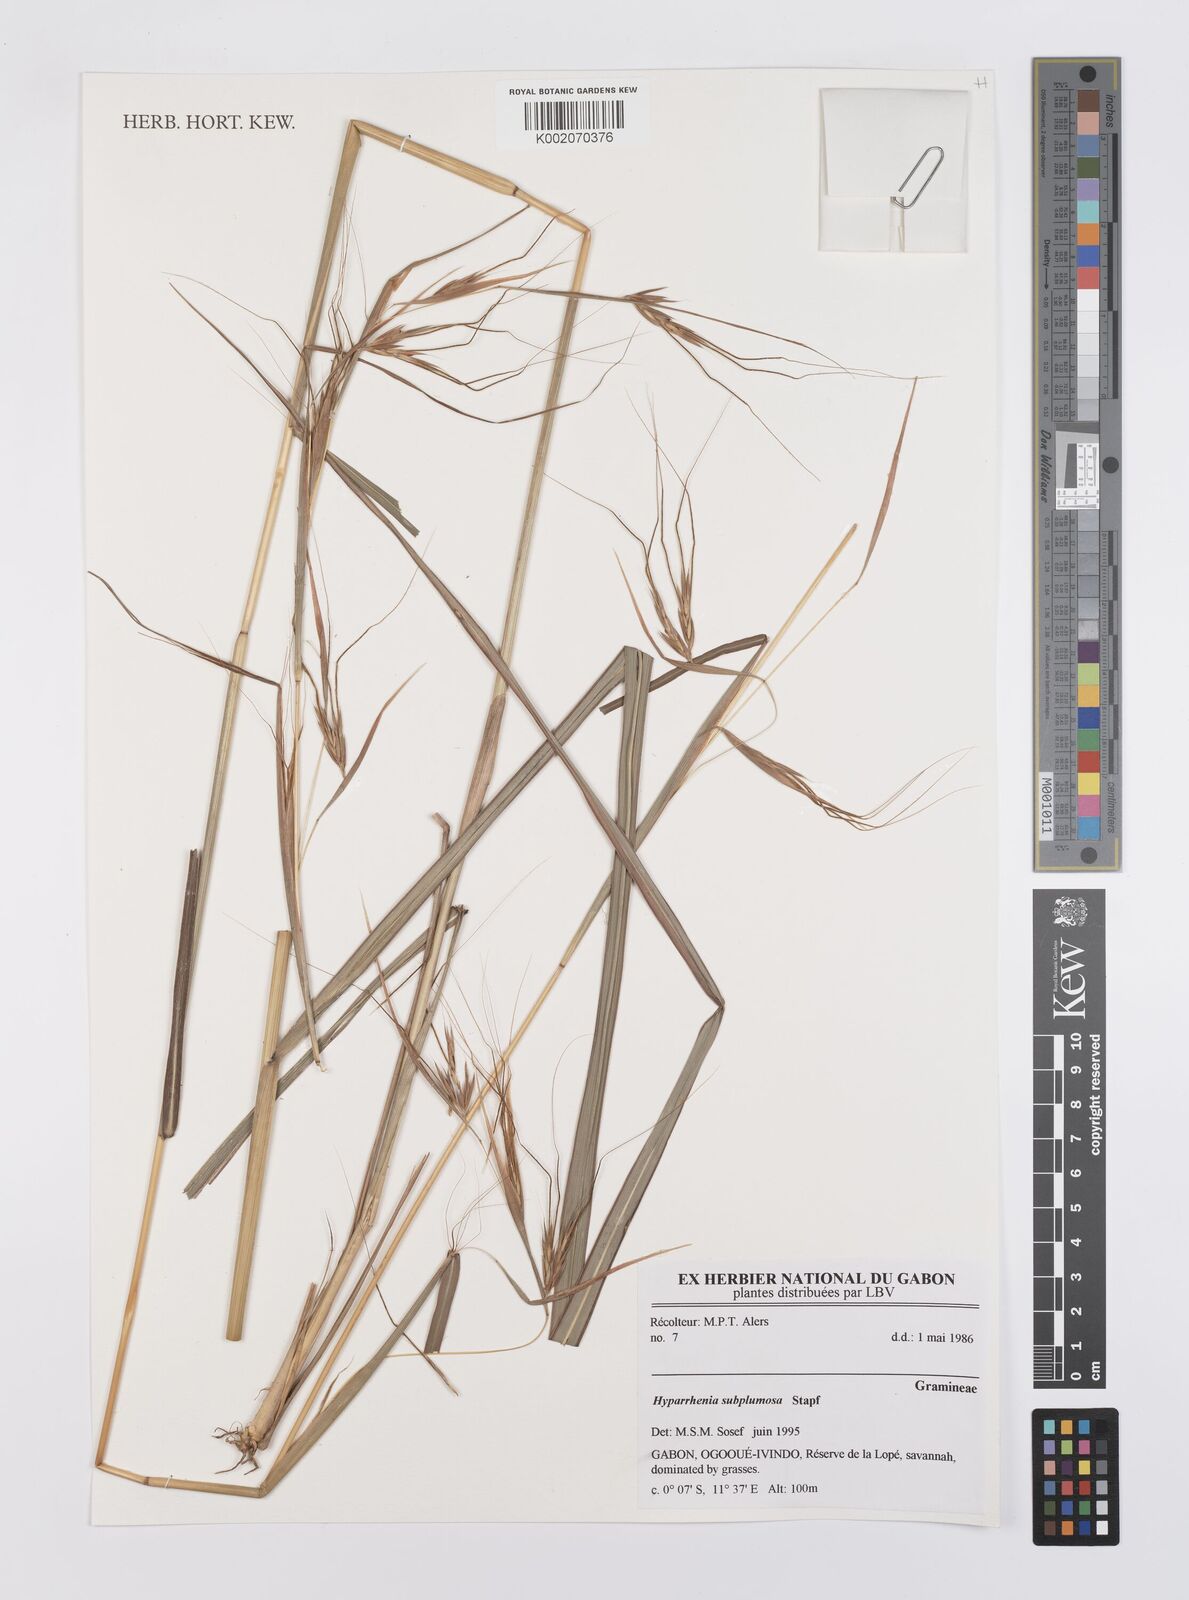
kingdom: Plantae
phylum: Tracheophyta
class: Liliopsida
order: Poales
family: Poaceae
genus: Hyparrhenia
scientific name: Hyparrhenia subplumosa
